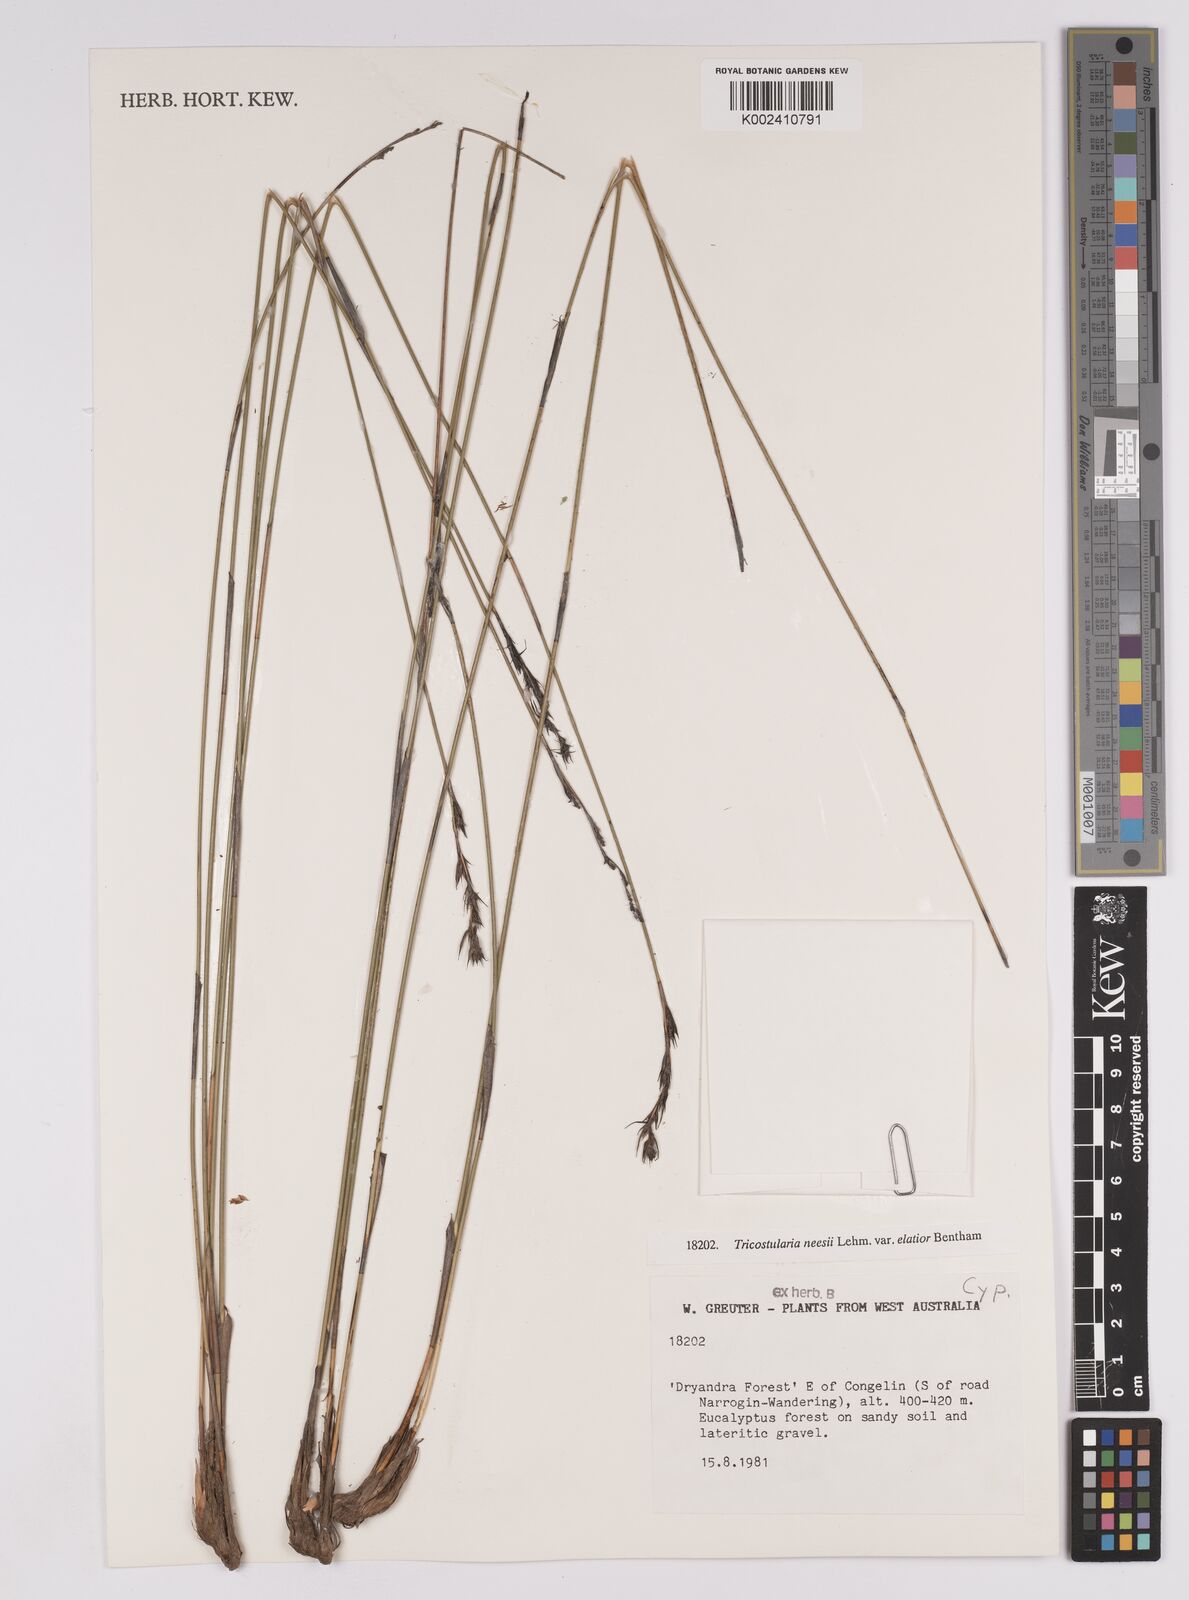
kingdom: Plantae
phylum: Tracheophyta
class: Liliopsida
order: Poales
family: Cyperaceae
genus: Tricostularia
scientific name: Tricostularia neesii
